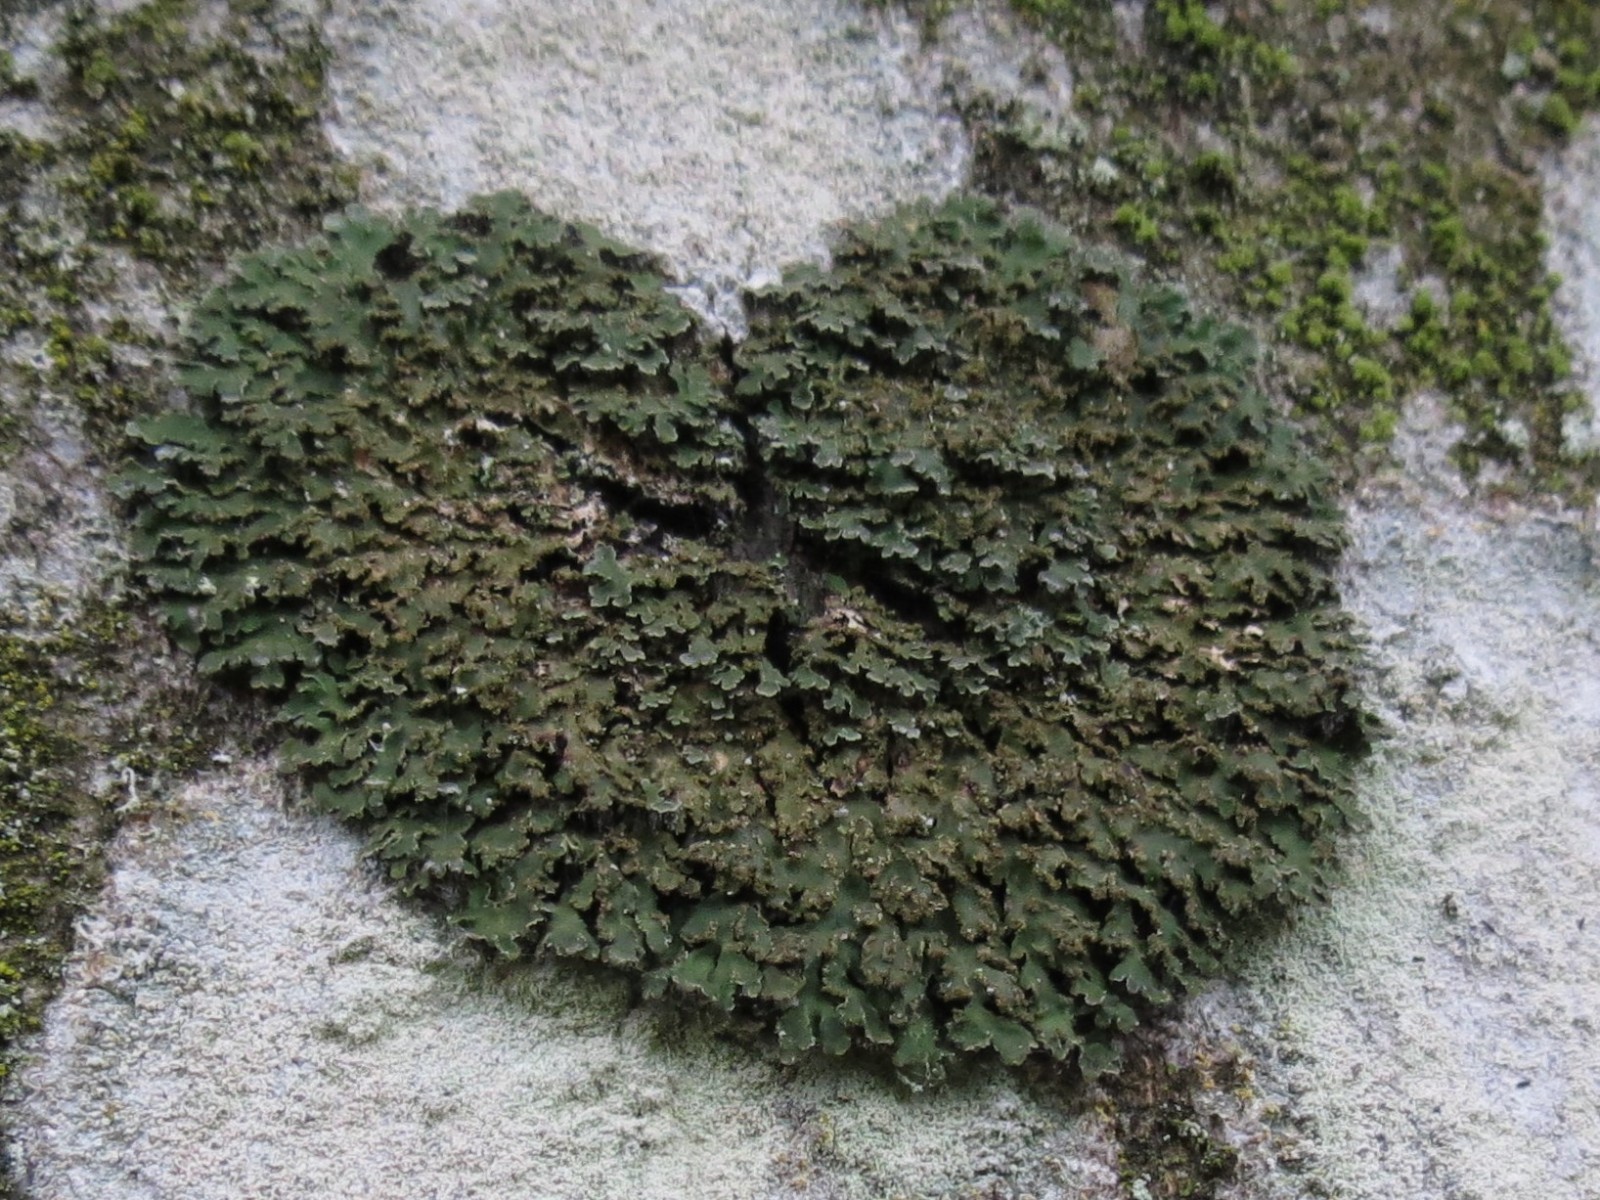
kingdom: Fungi
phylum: Ascomycota
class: Lecanoromycetes
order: Caliciales
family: Physciaceae
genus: Physconia
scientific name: Physconia enteroxantha
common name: grynet dugrosetlav
